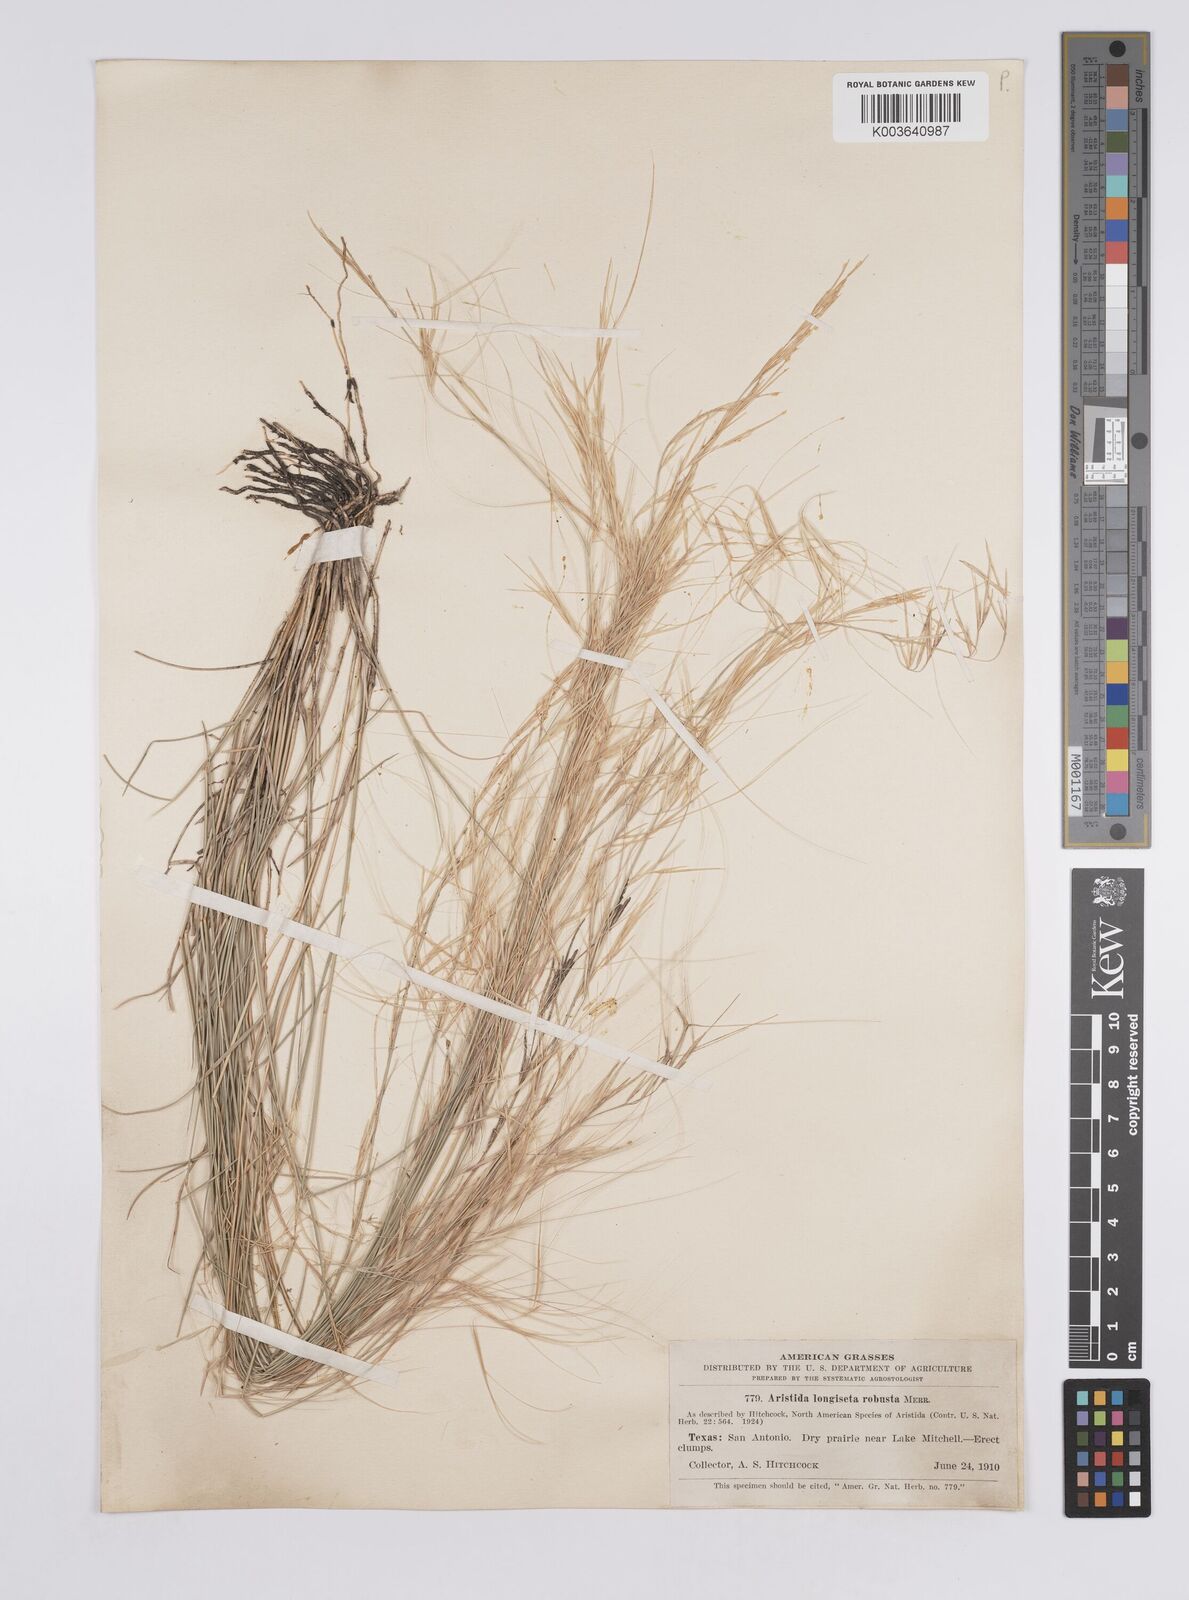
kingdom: Plantae
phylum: Tracheophyta
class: Liliopsida
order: Poales
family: Poaceae
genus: Aristida
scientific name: Aristida purpurea
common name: Purple threeawn
